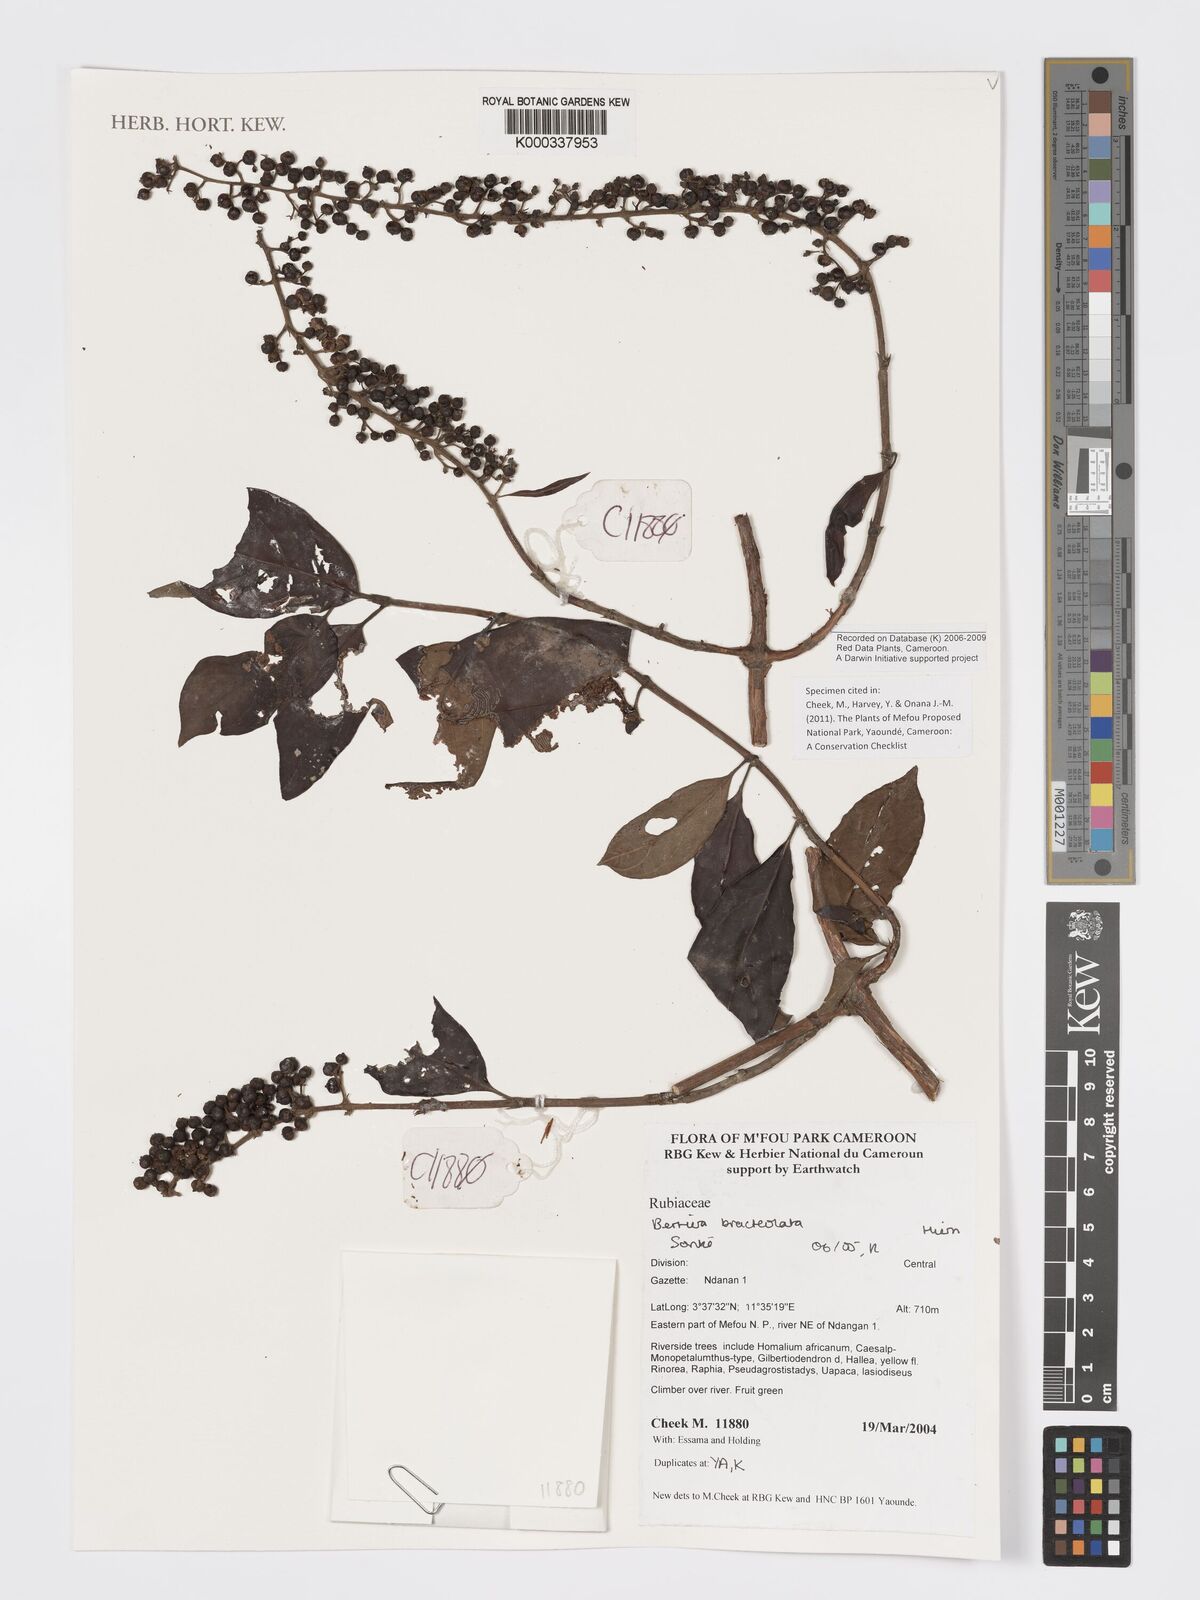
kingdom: Plantae
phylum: Tracheophyta
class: Magnoliopsida
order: Gentianales
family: Rubiaceae
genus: Bertiera
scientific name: Bertiera bracteolata
